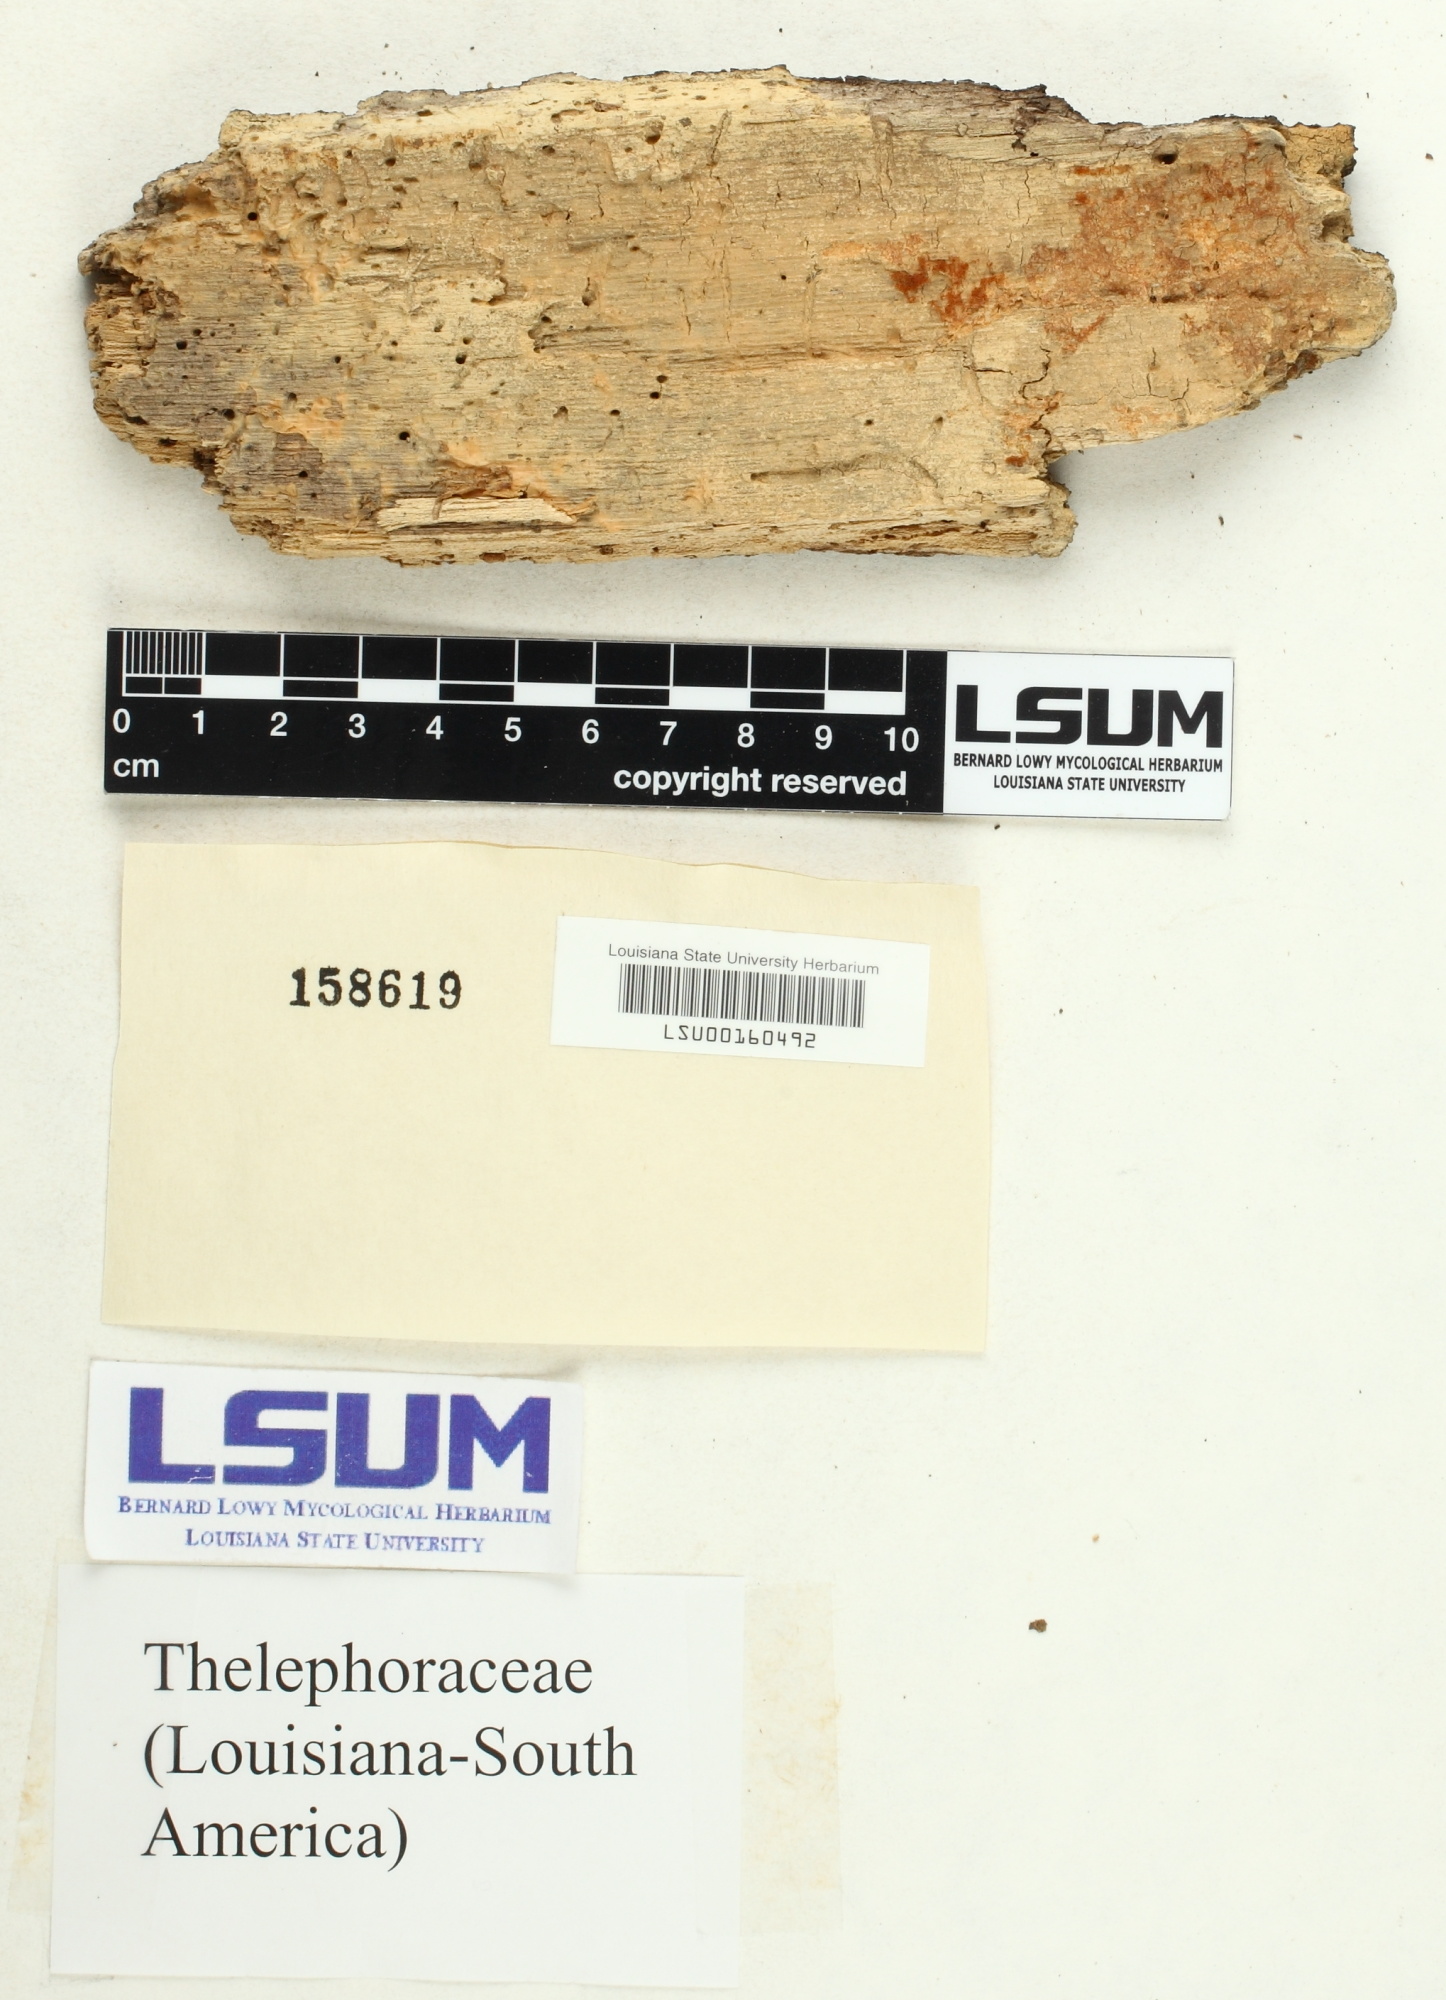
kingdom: Fungi
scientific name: Fungi
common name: Fungi
